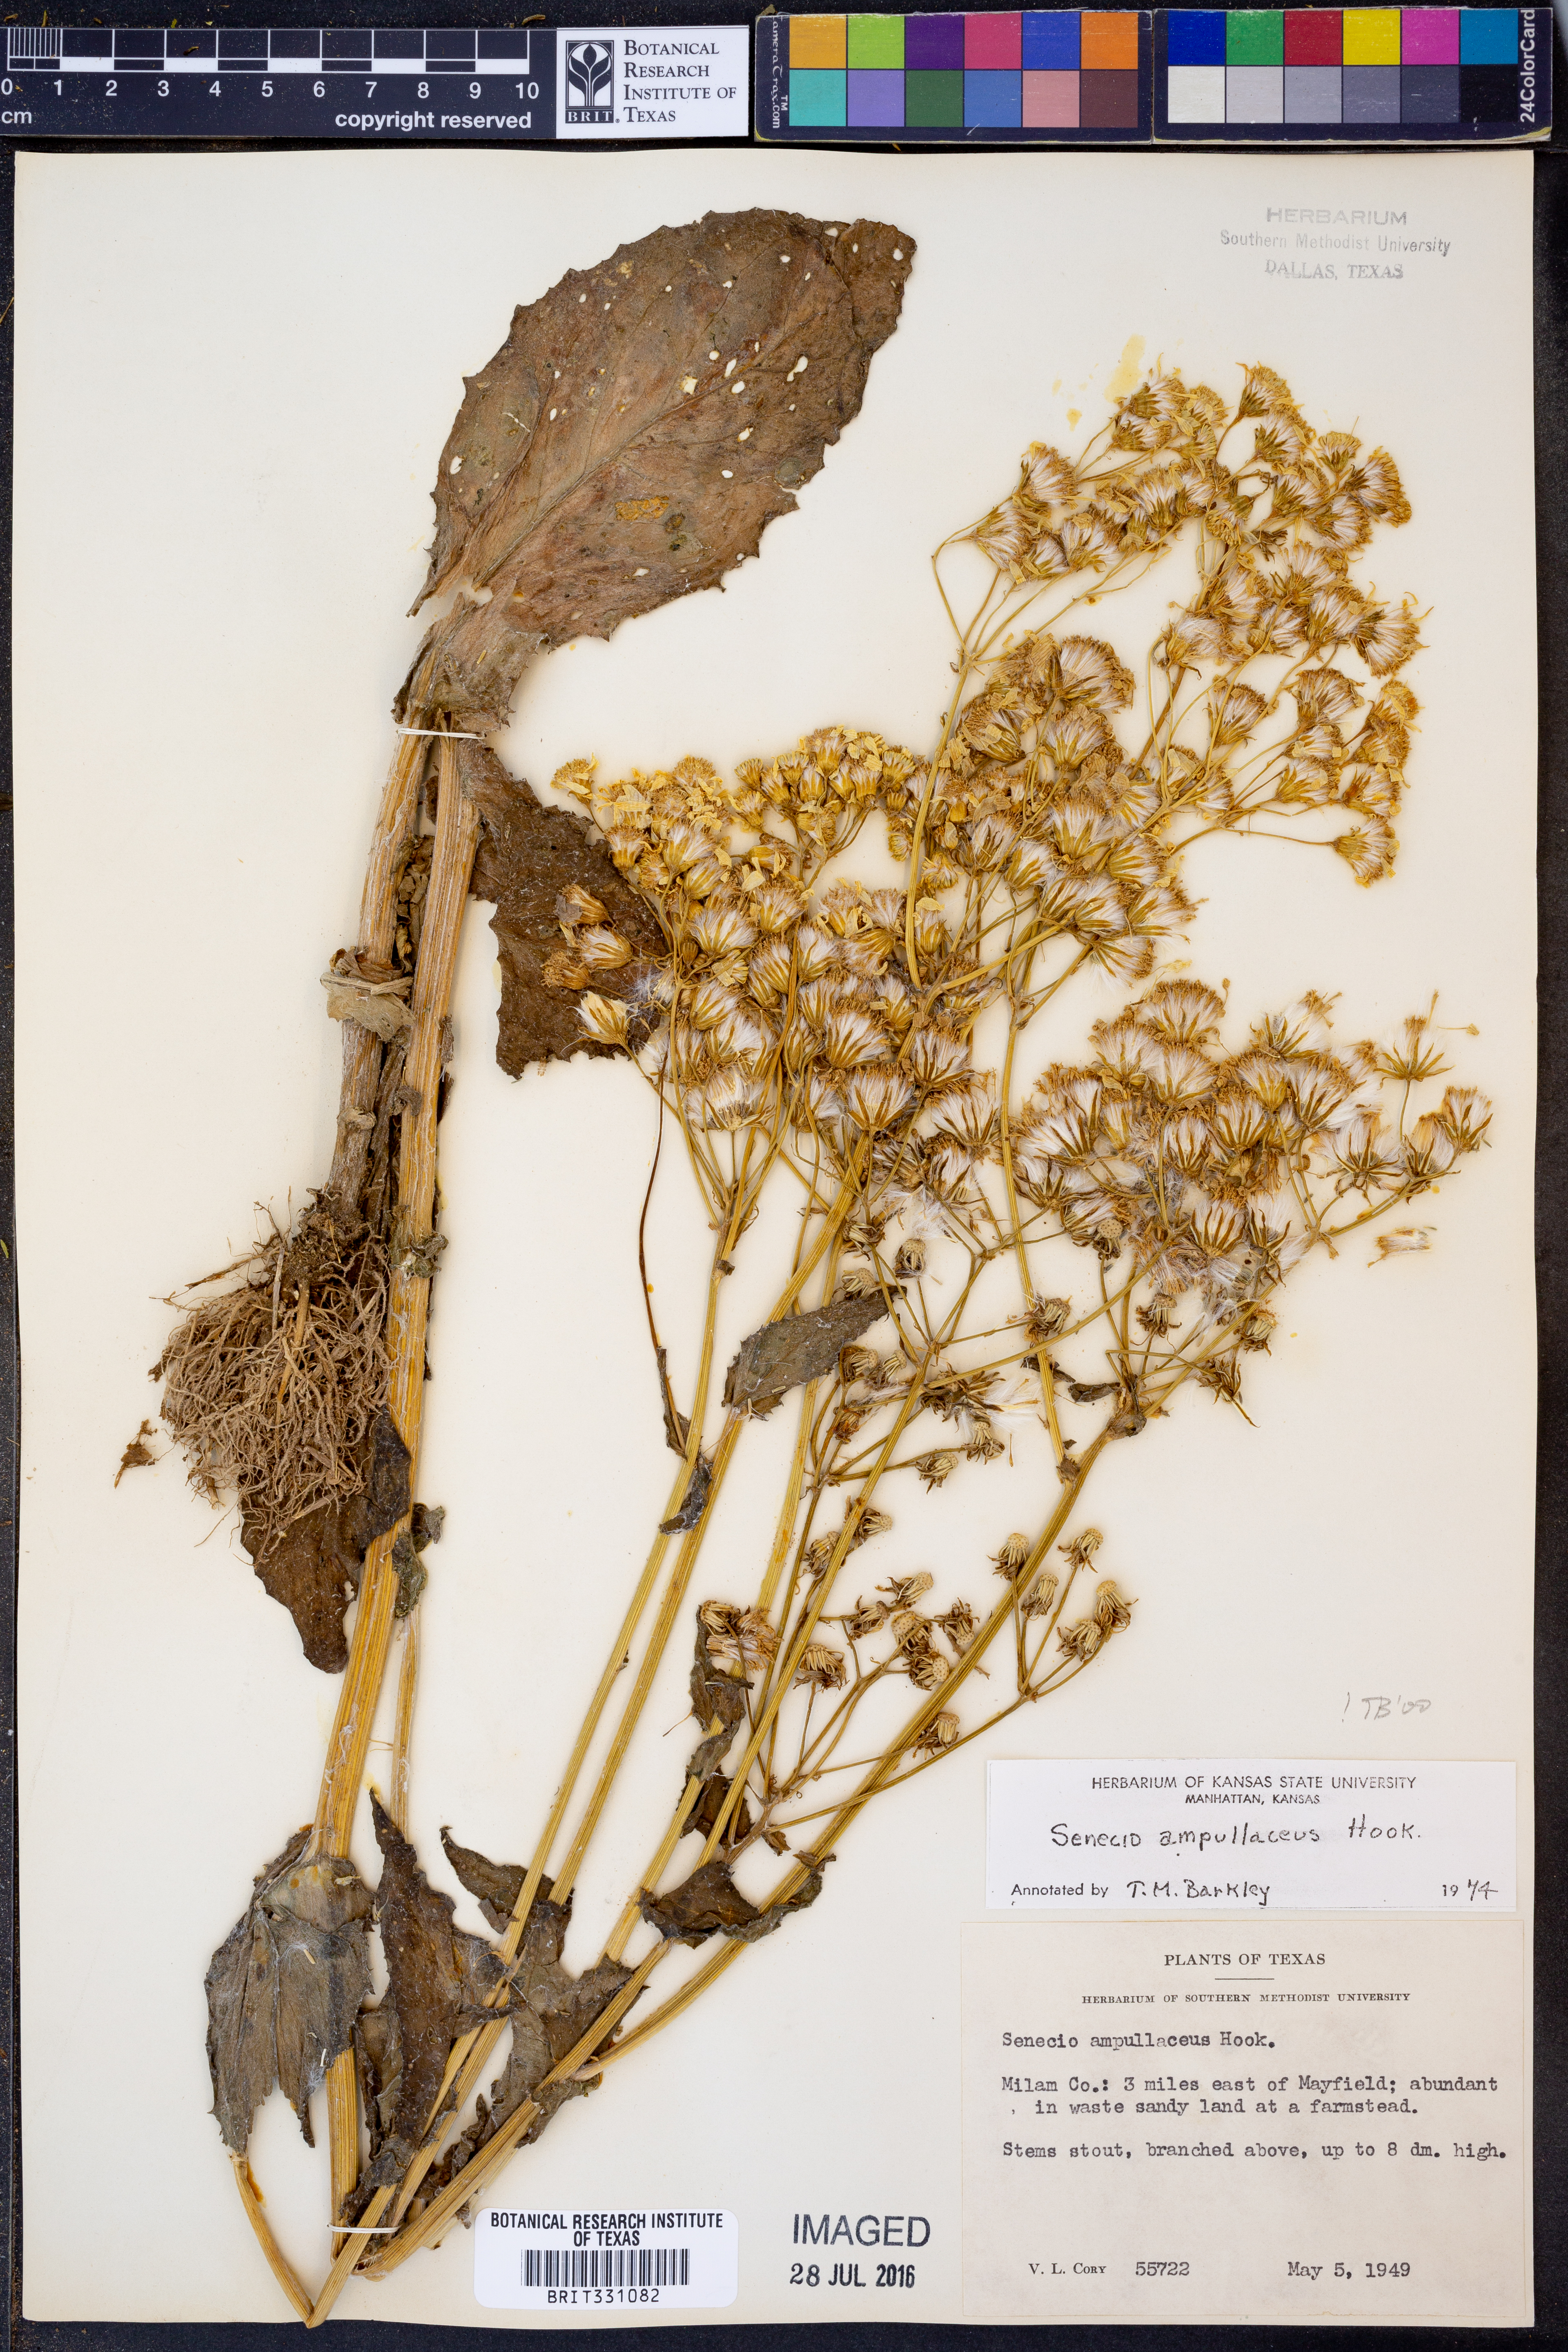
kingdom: Plantae
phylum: Tracheophyta
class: Magnoliopsida
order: Asterales
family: Asteraceae
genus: Senecio
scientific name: Senecio ampullaceus
